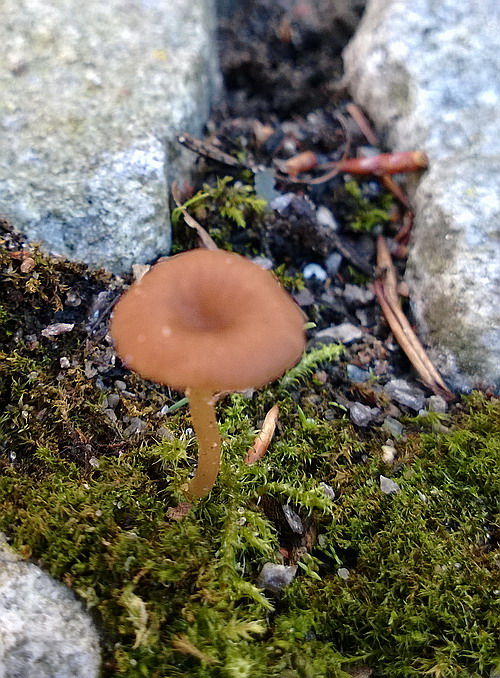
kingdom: Fungi
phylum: Basidiomycota
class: Agaricomycetes
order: Agaricales
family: Tricholomataceae
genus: Omphalina
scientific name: Omphalina pyxidata
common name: rødbrun navlehat
